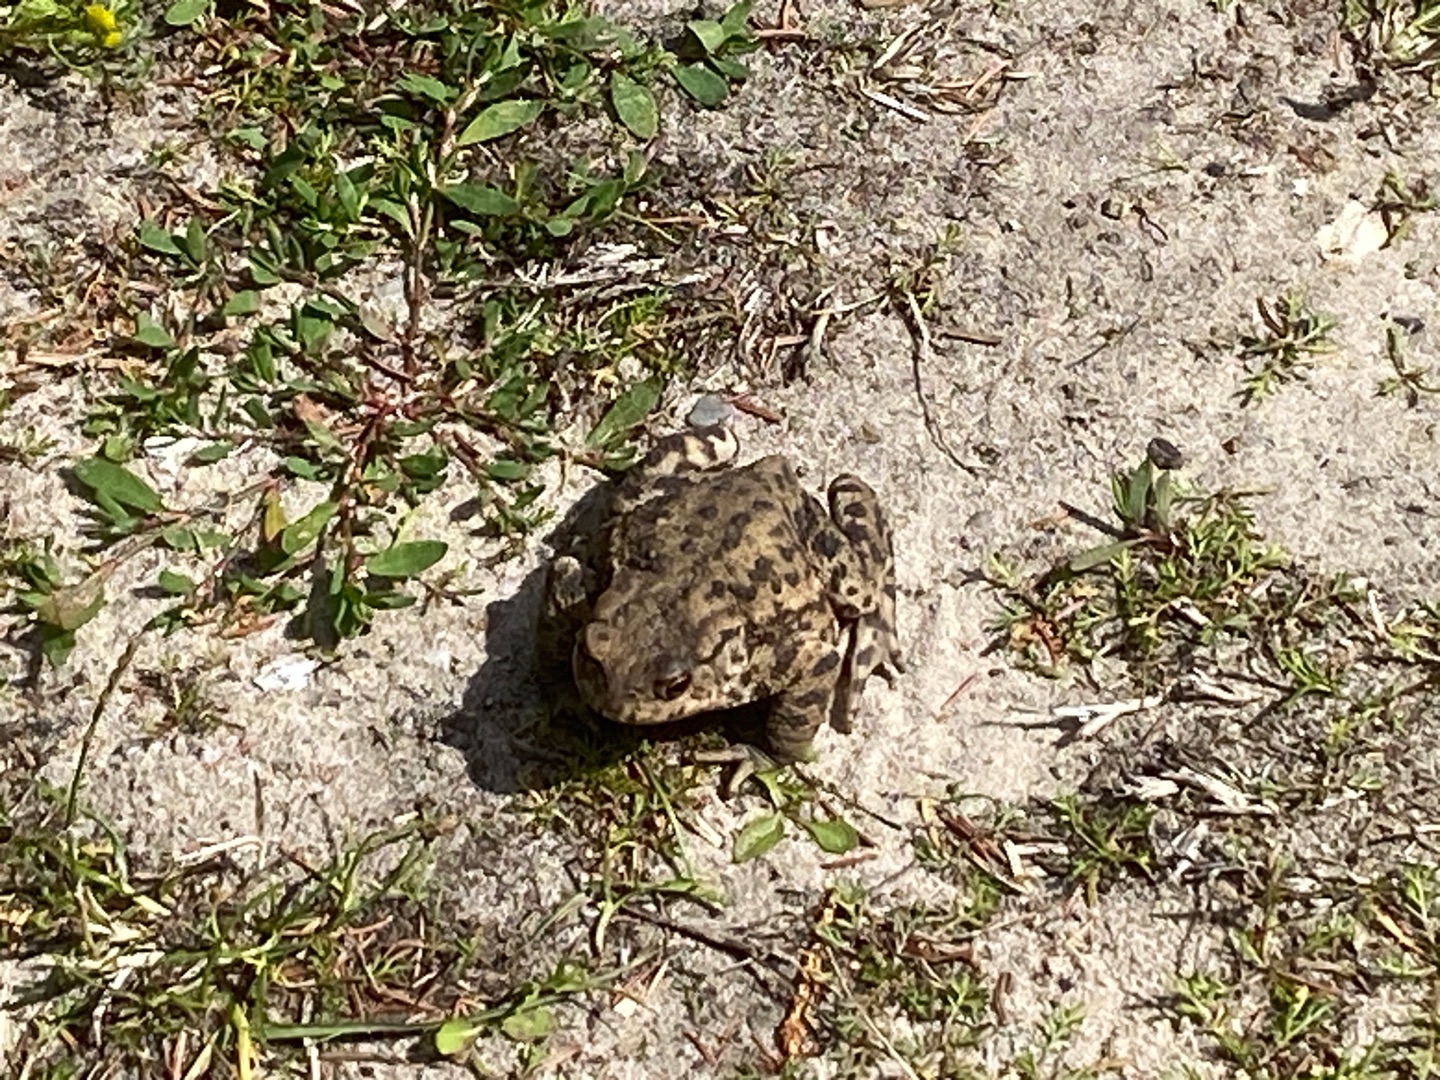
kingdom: Animalia
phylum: Chordata
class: Amphibia
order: Anura
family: Bufonidae
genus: Bufo
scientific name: Bufo bufo
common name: Skrubtudse
